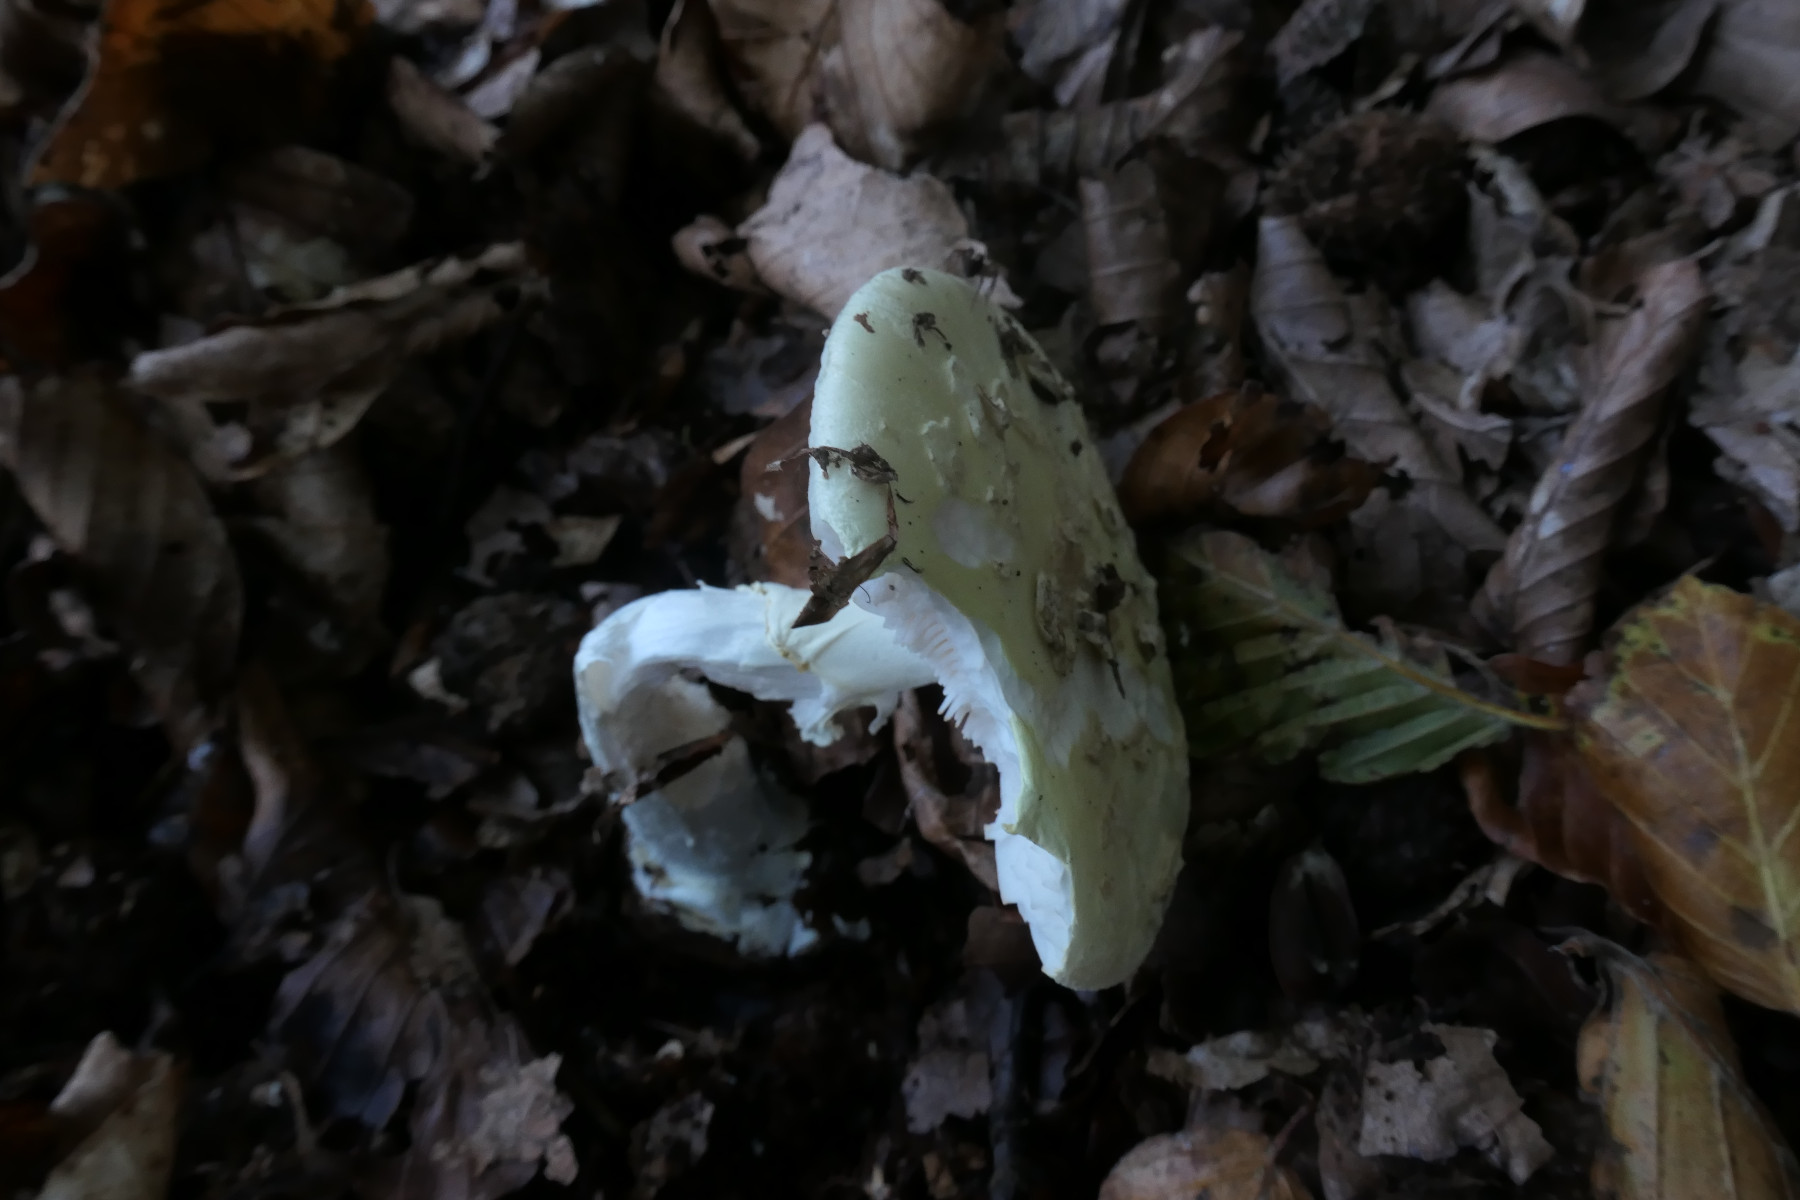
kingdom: Fungi
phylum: Basidiomycota
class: Agaricomycetes
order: Agaricales
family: Amanitaceae
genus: Amanita
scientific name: Amanita citrina
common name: kugleknoldet fluesvamp
